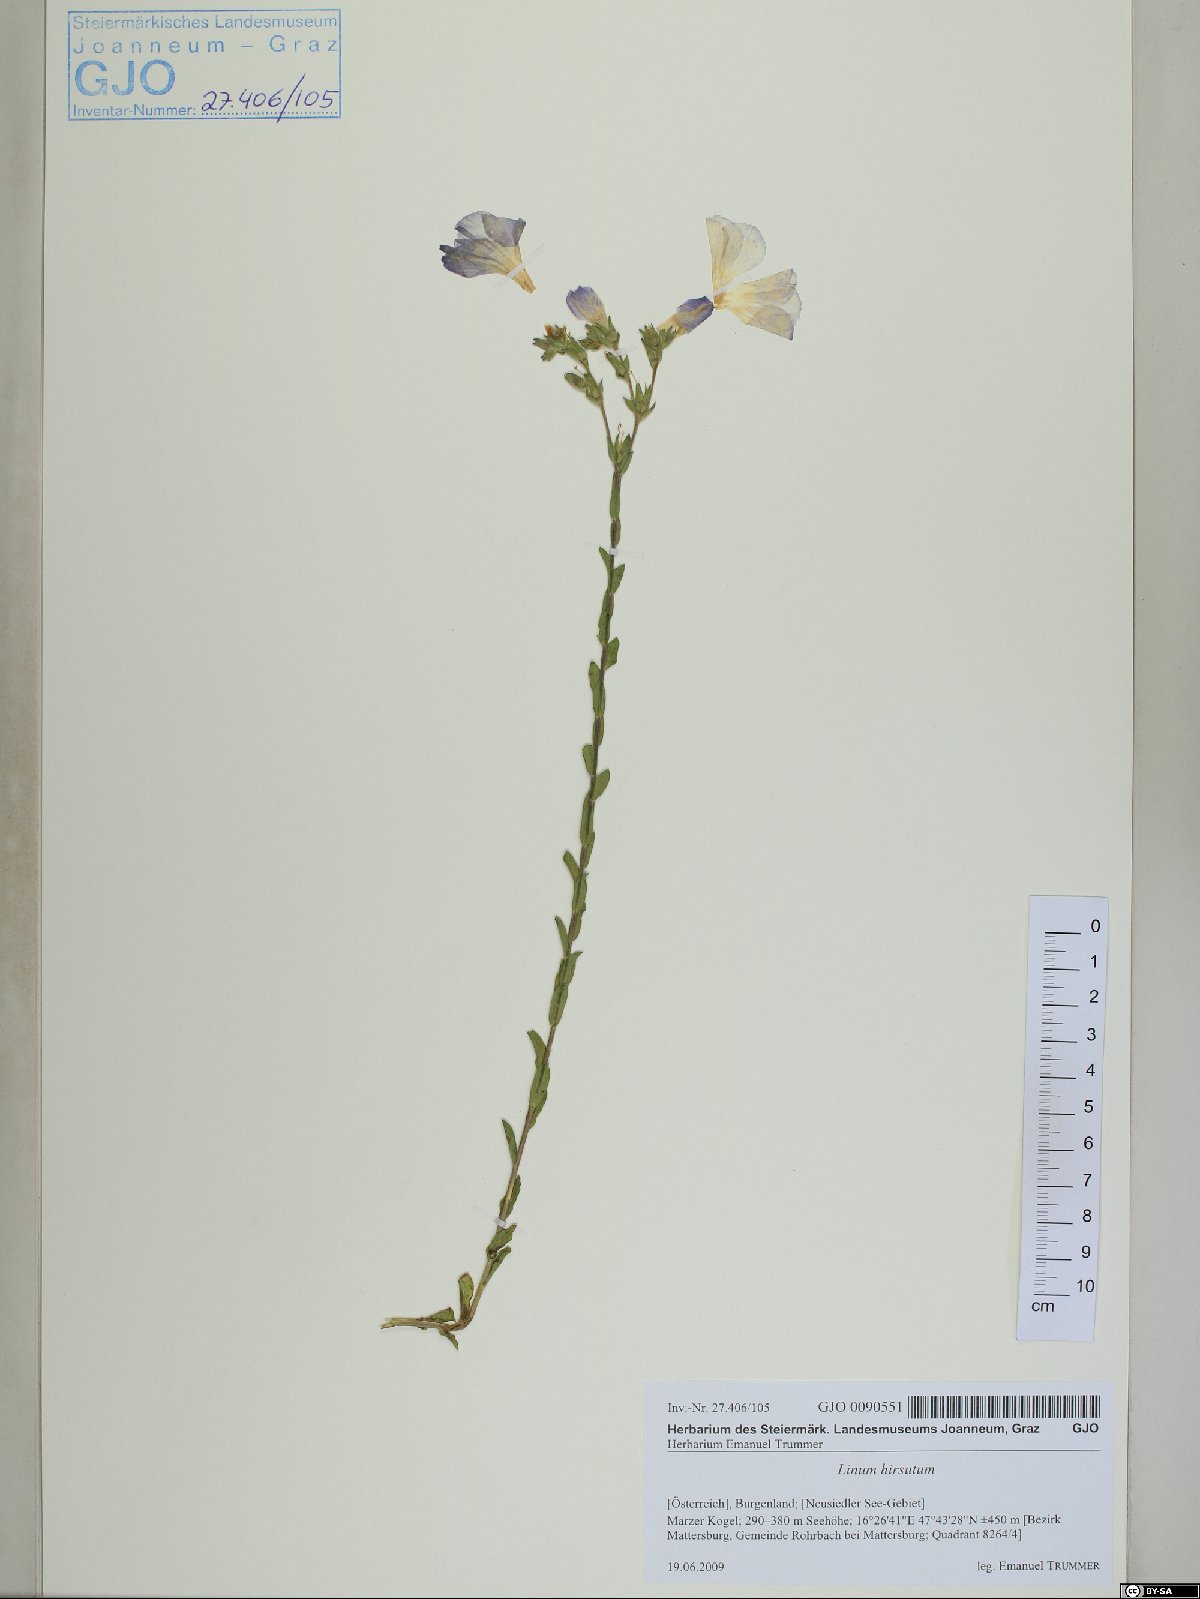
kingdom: Plantae
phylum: Tracheophyta
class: Magnoliopsida
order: Malpighiales
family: Linaceae
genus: Linum
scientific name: Linum hirsutum
